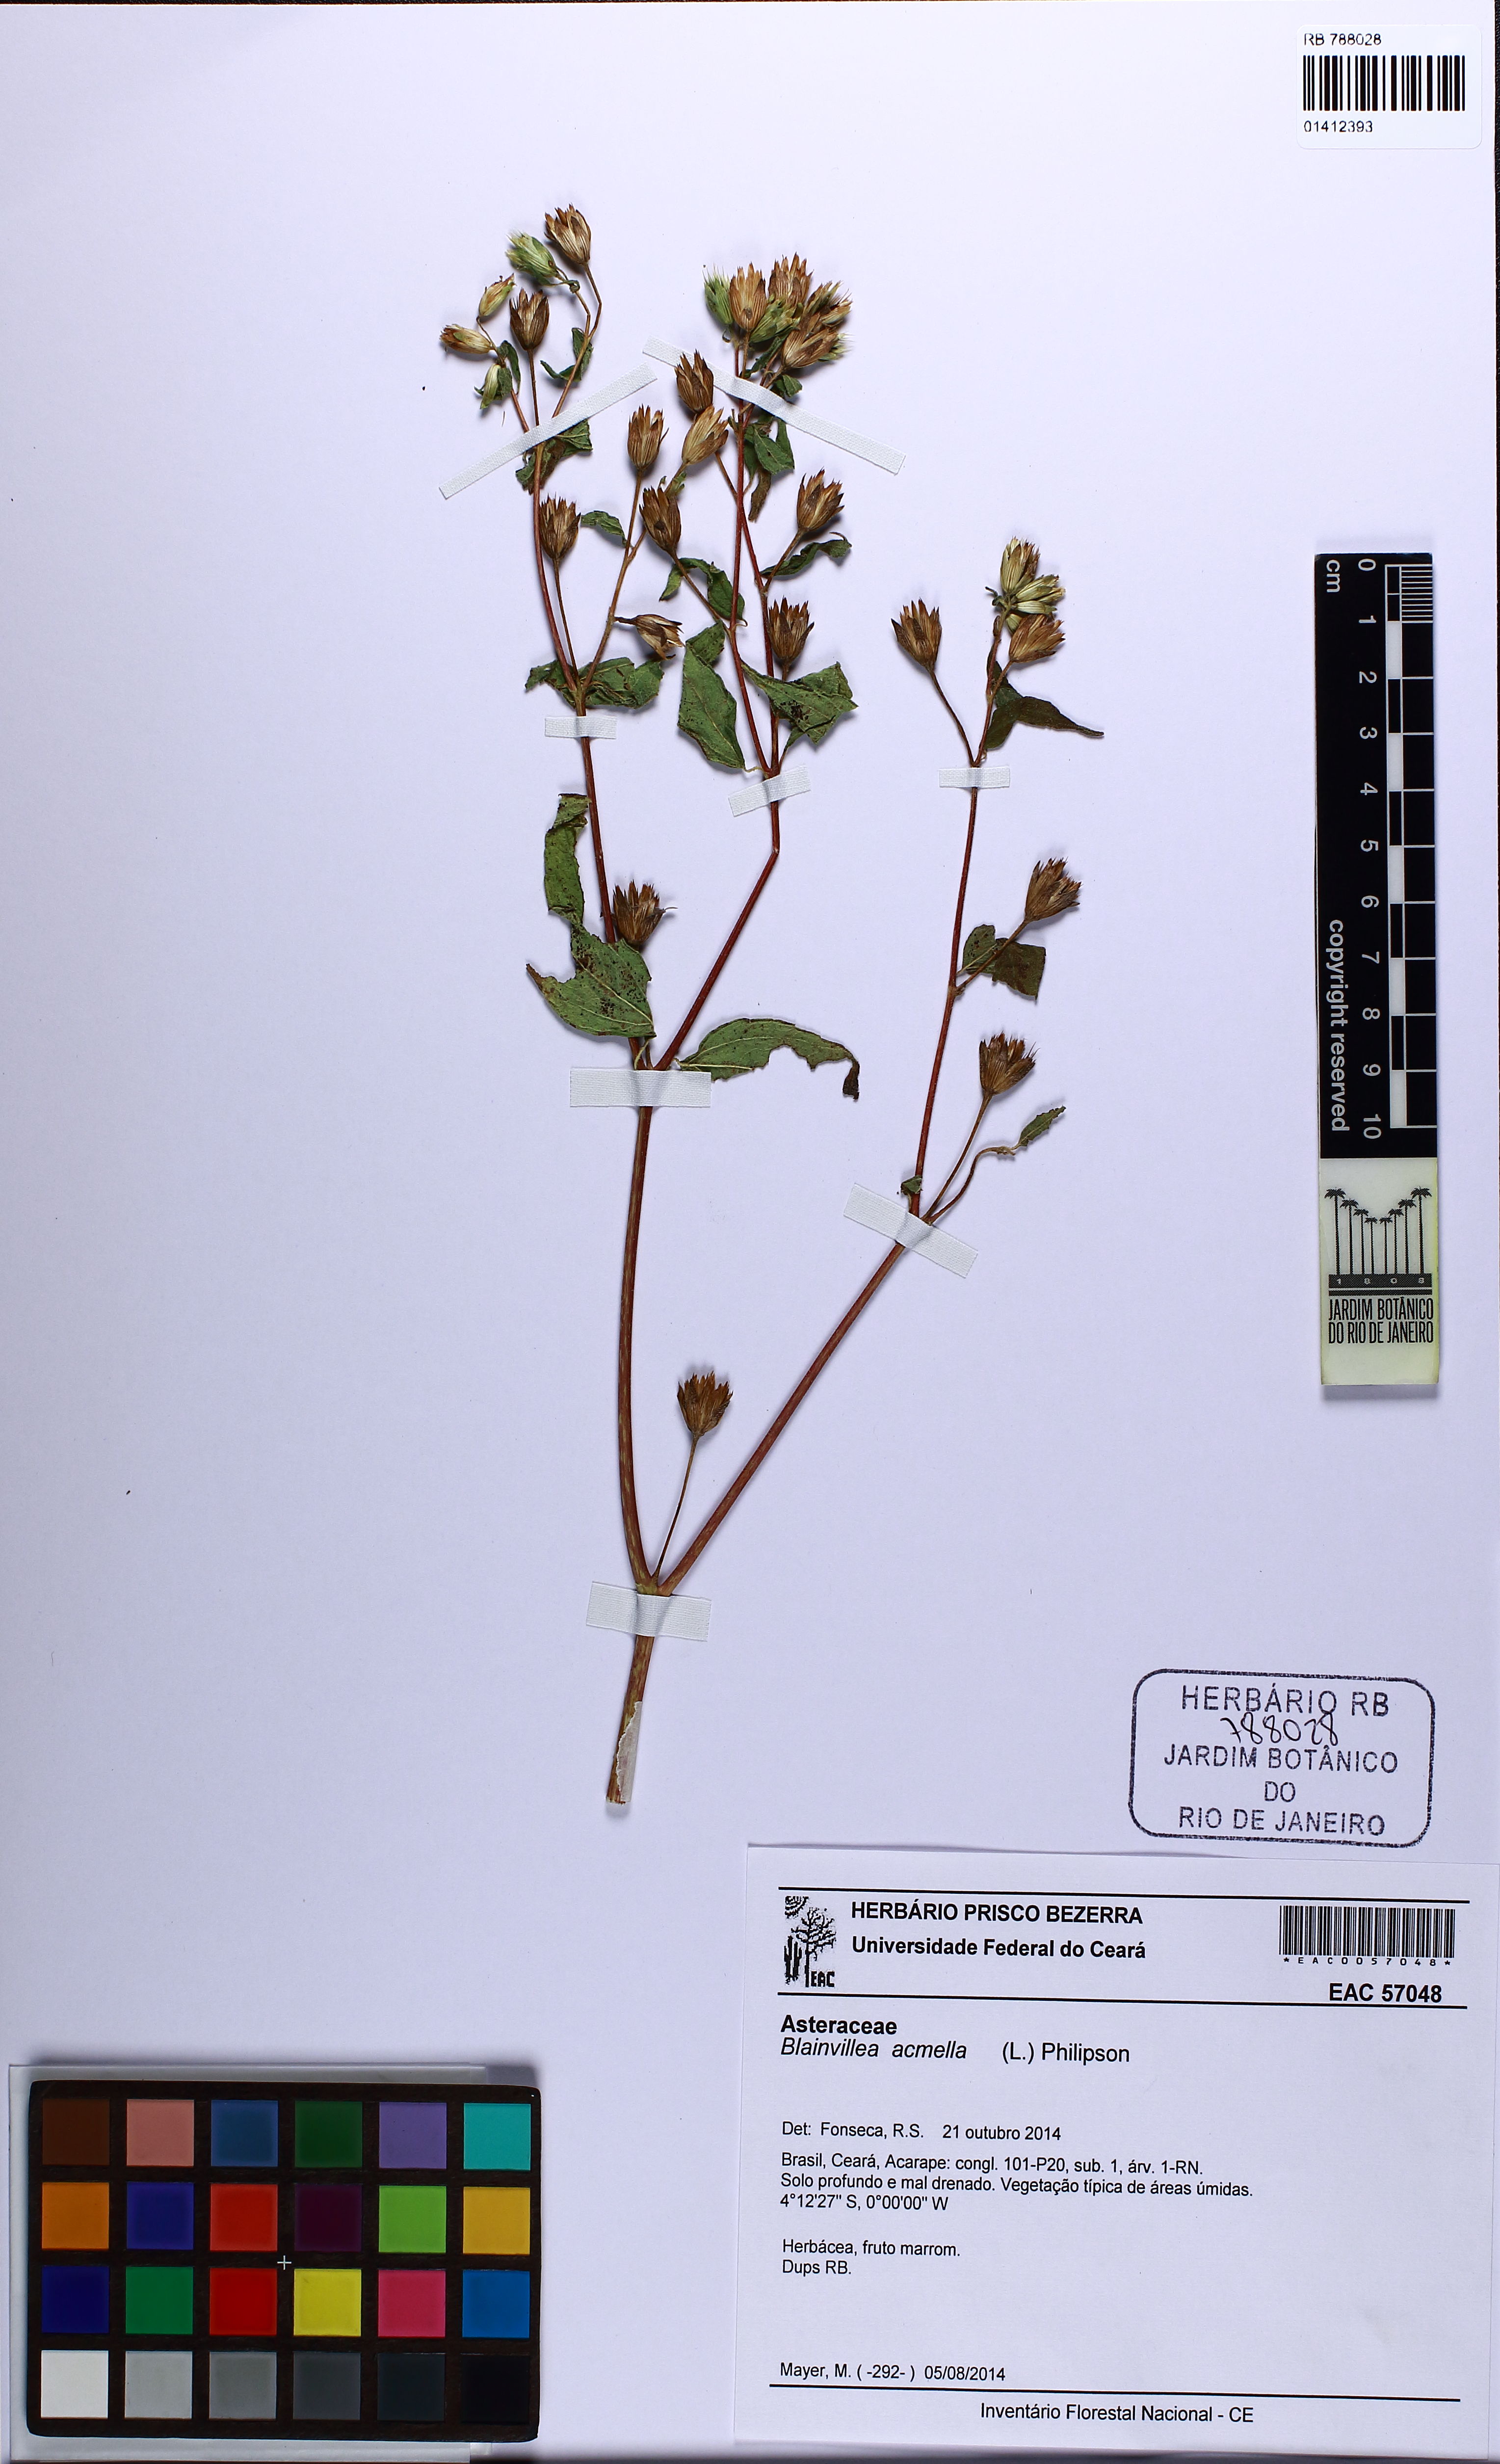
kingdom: Plantae
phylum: Tracheophyta
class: Magnoliopsida
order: Asterales
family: Asteraceae
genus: Blainvillea
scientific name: Blainvillea acmella
